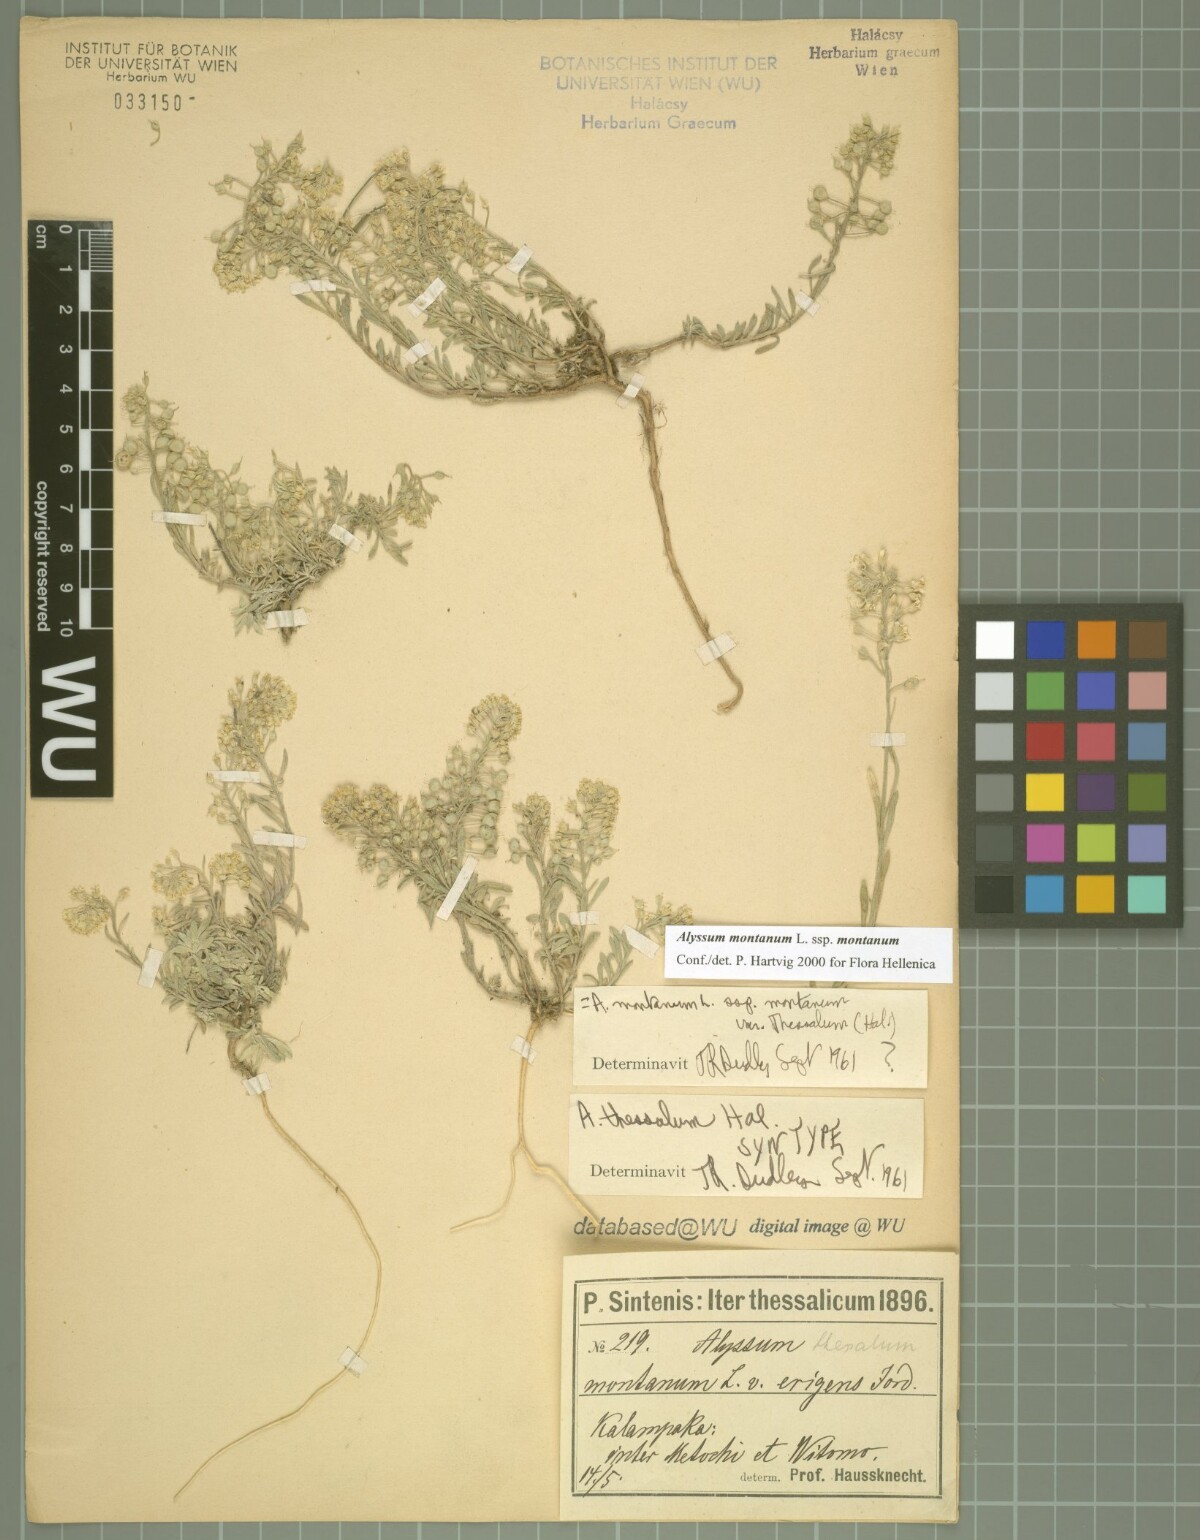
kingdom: Plantae
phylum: Tracheophyta
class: Magnoliopsida
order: Brassicales
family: Brassicaceae
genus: Alyssum
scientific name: Alyssum montanum
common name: Mountain alison
